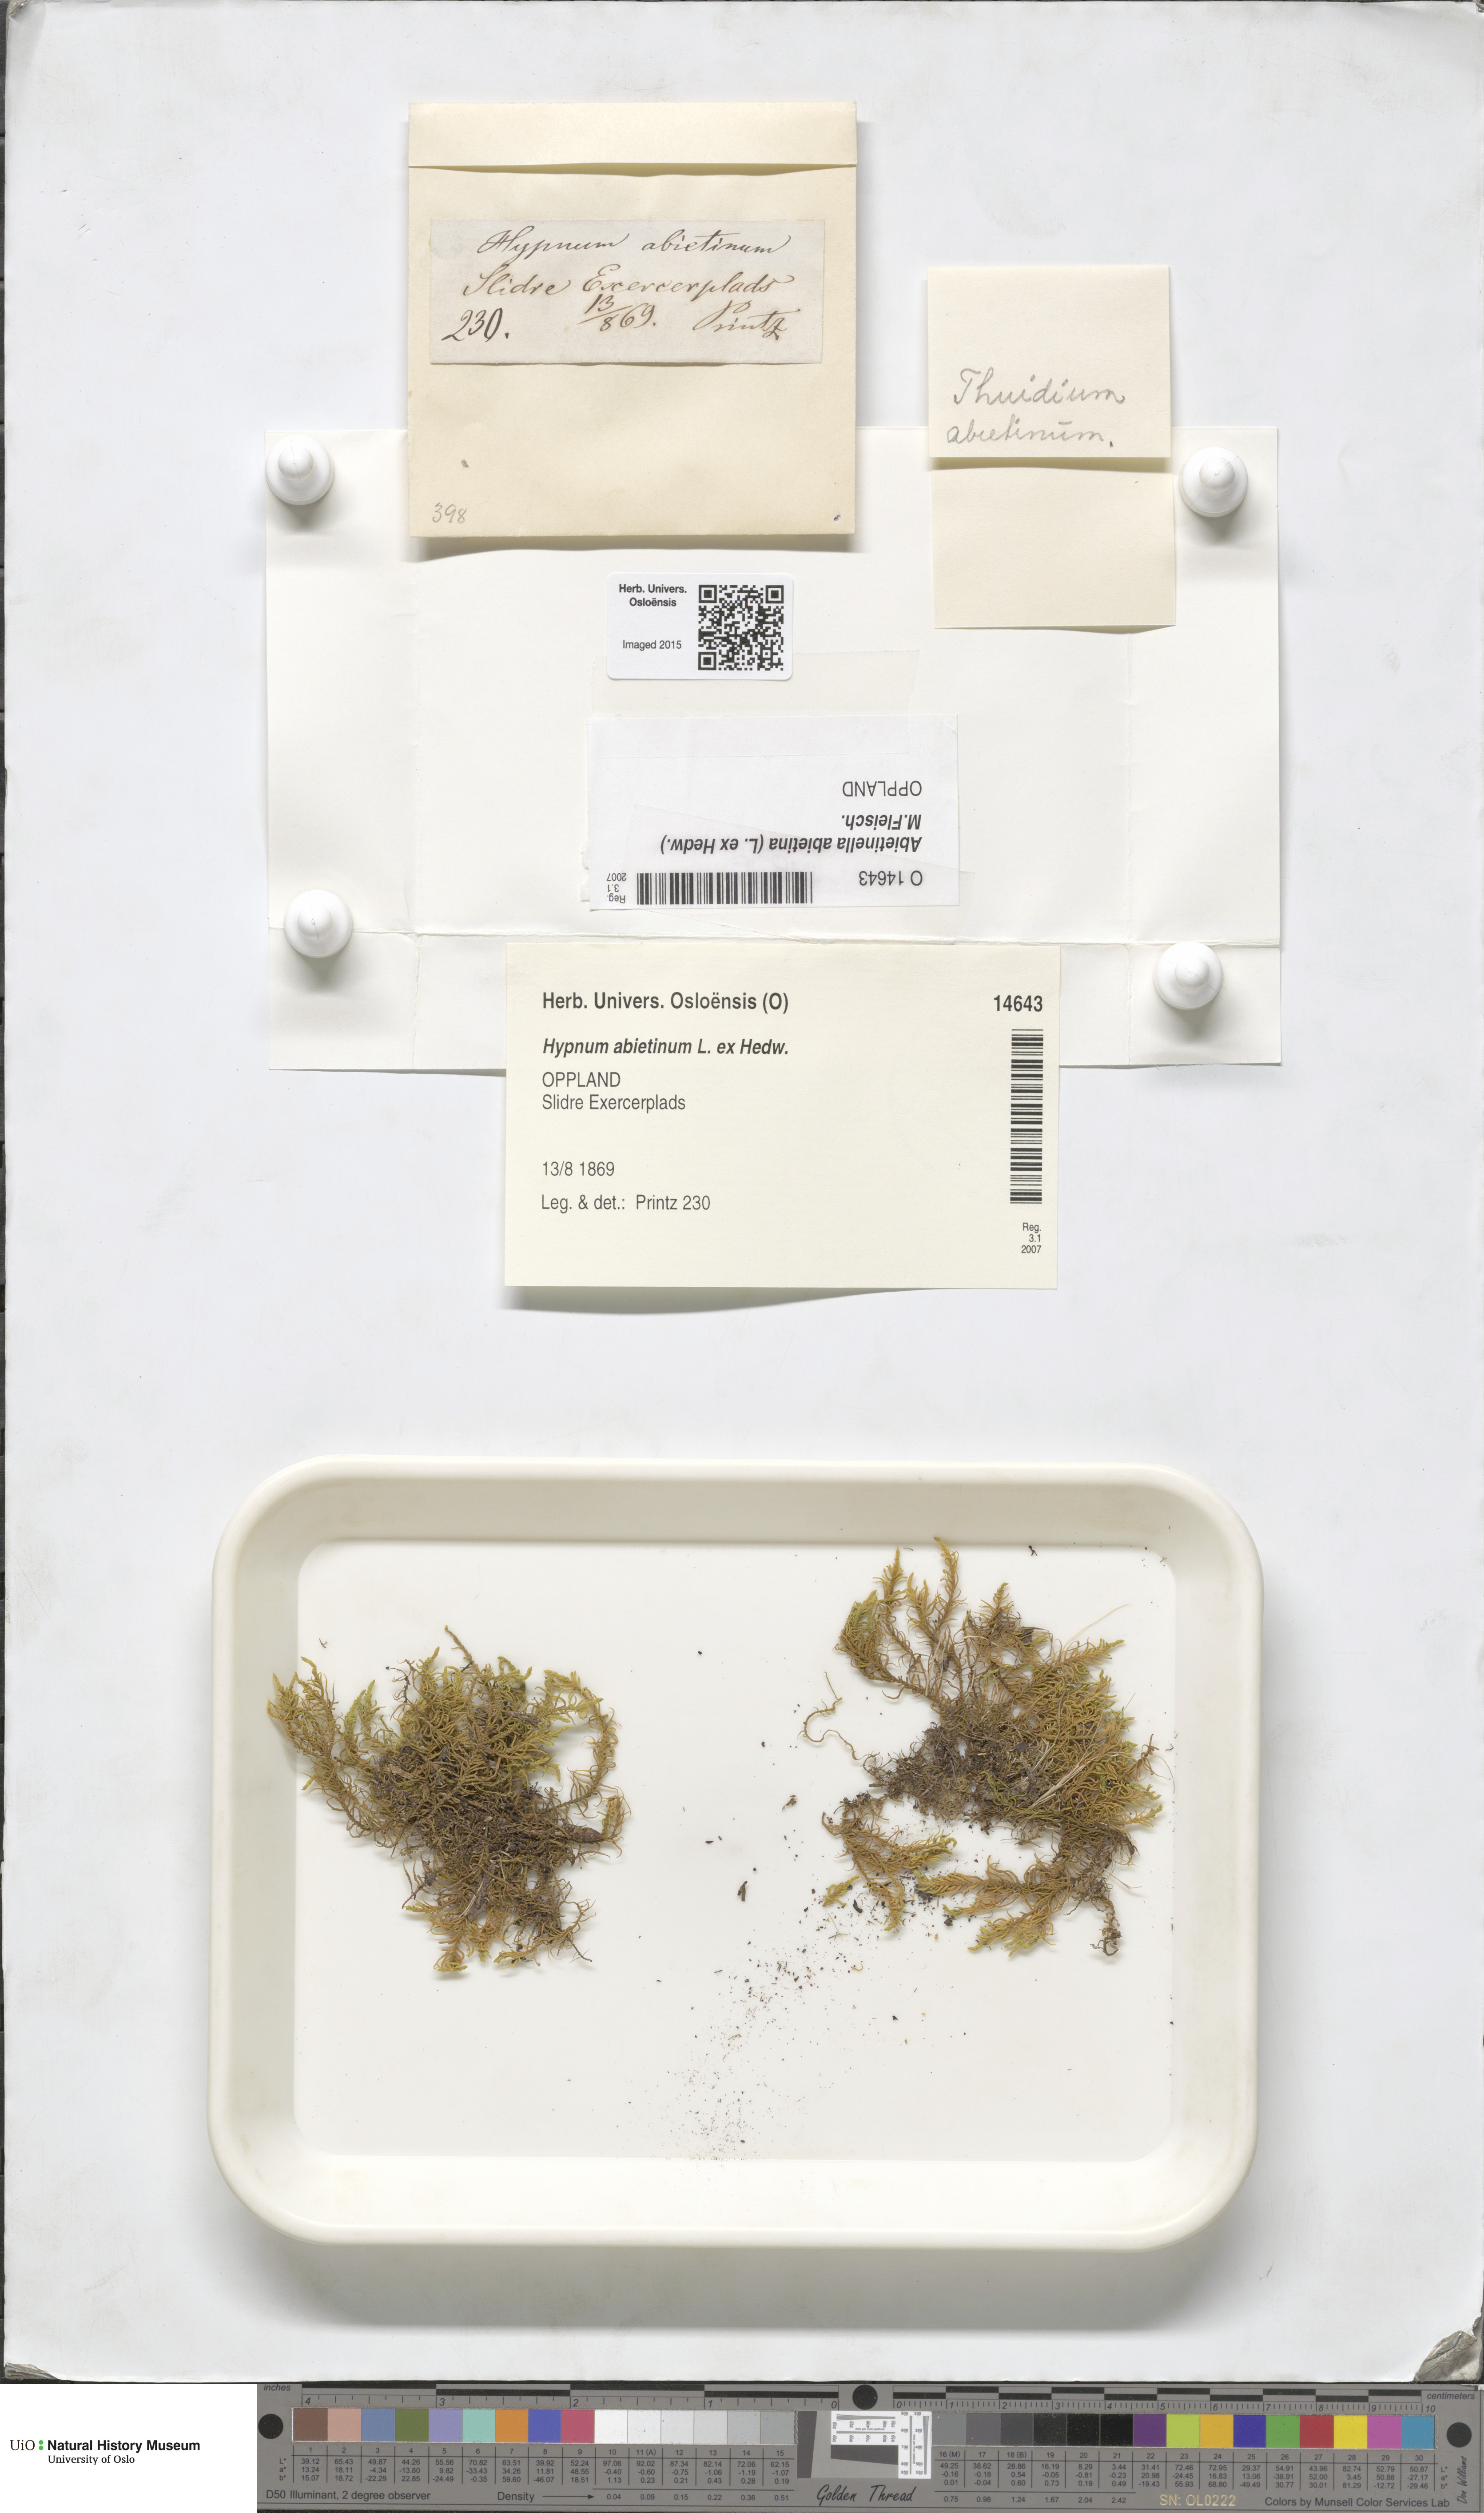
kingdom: Plantae
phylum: Bryophyta
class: Bryopsida
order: Hypnales
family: Thuidiaceae
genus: Abietinella
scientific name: Abietinella abietina
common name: Wiry fern moss
